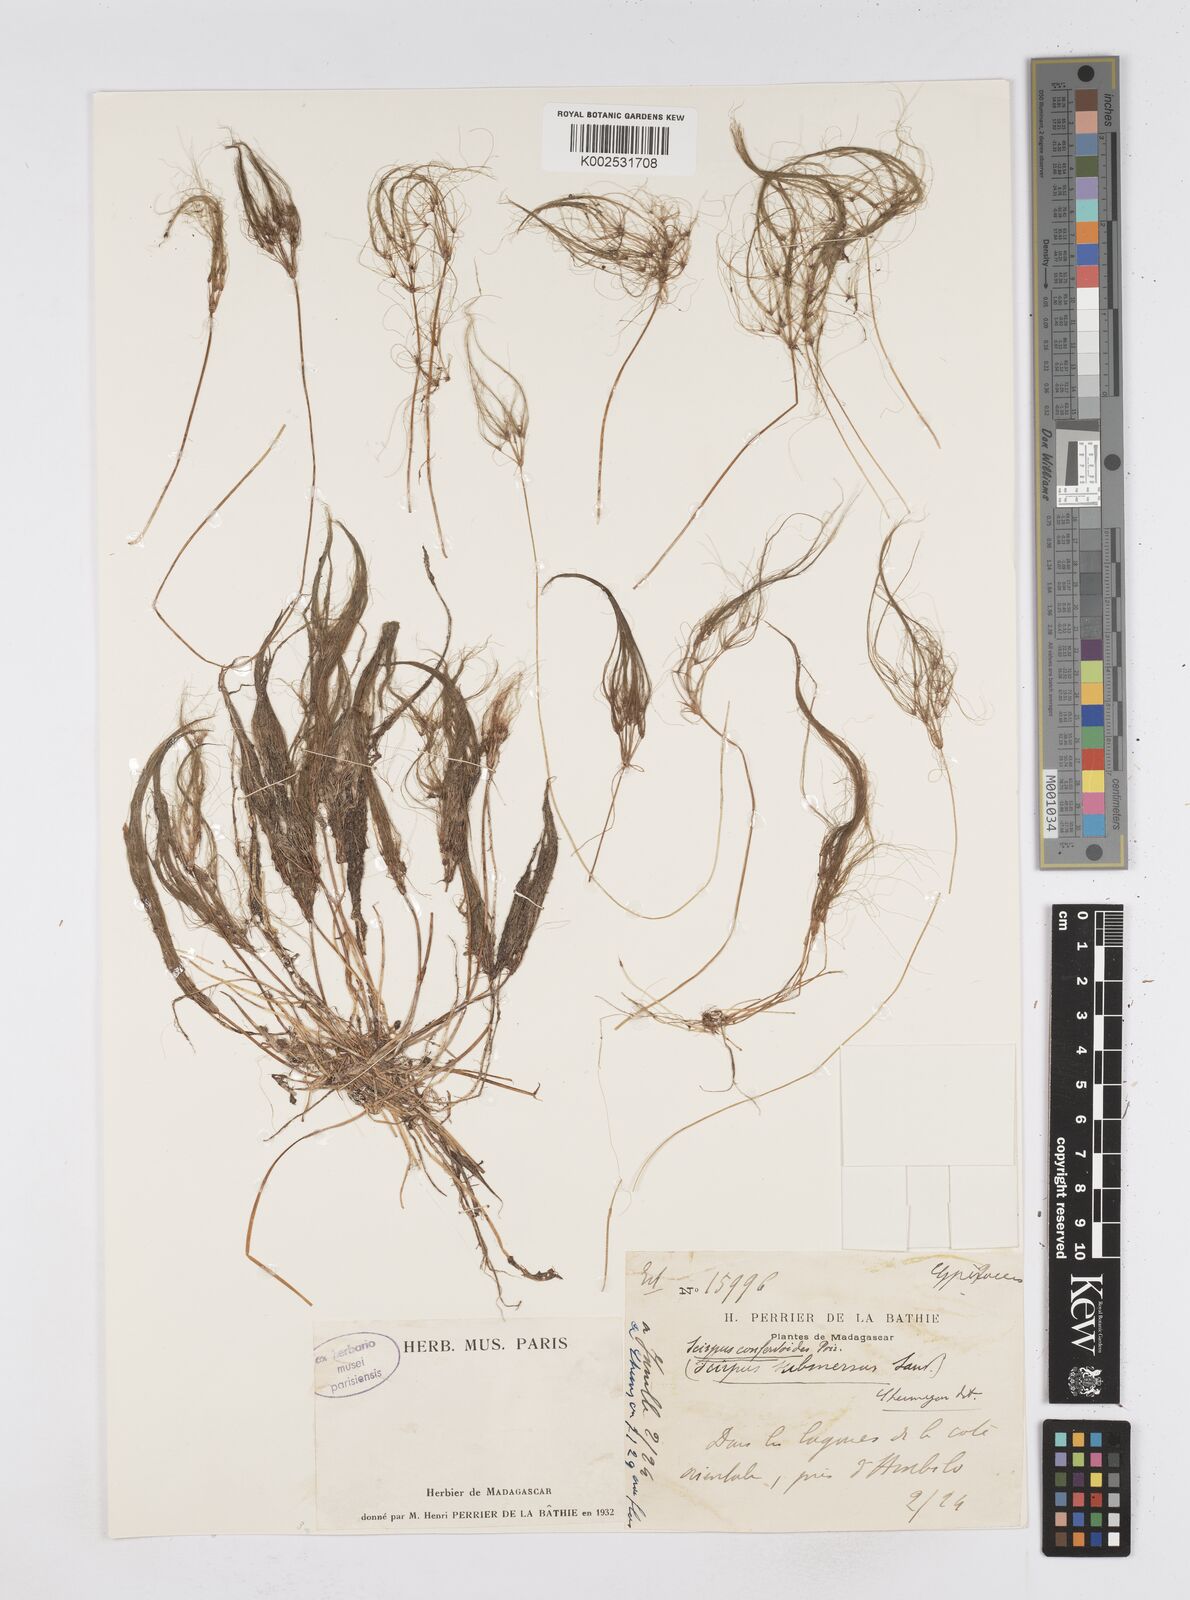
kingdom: Plantae
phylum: Tracheophyta
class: Liliopsida
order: Poales
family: Cyperaceae
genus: Eleocharis
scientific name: Eleocharis confervoides
